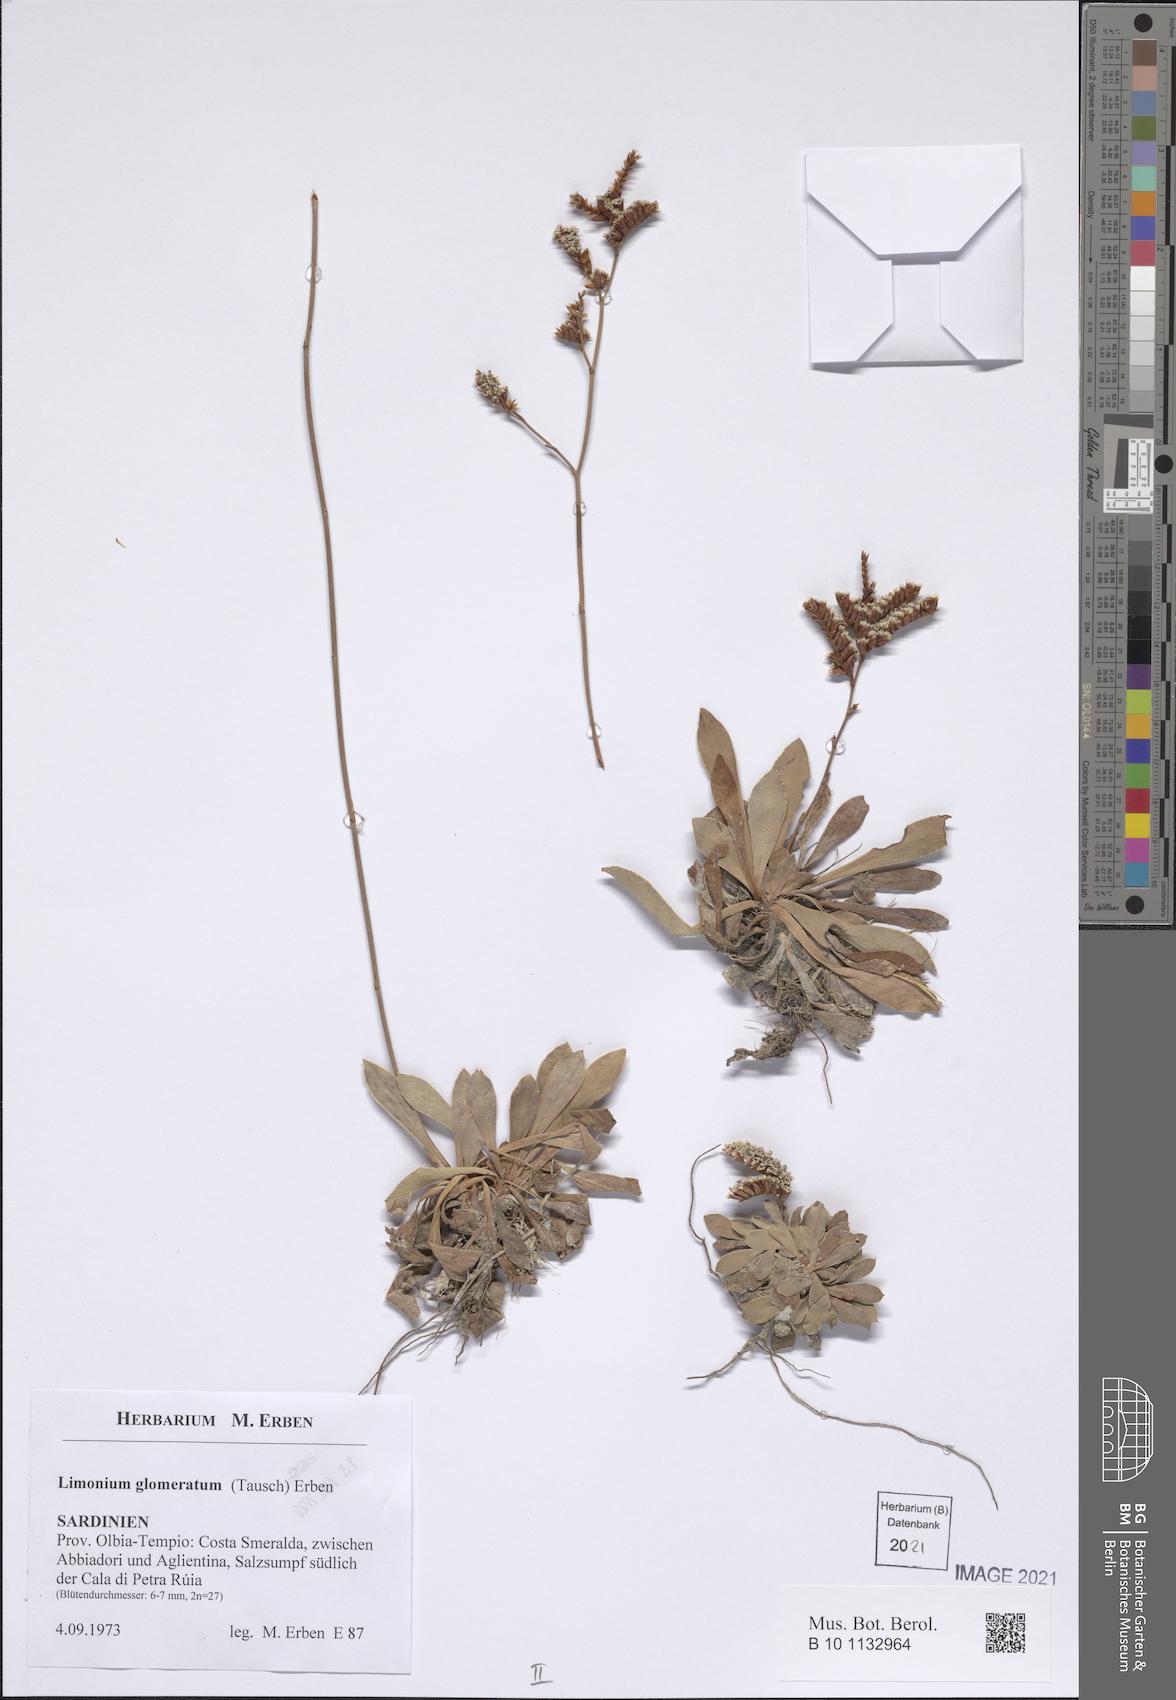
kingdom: Plantae
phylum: Tracheophyta
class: Magnoliopsida
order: Caryophyllales
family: Plumbaginaceae
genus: Limonium
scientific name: Limonium glomeratum
